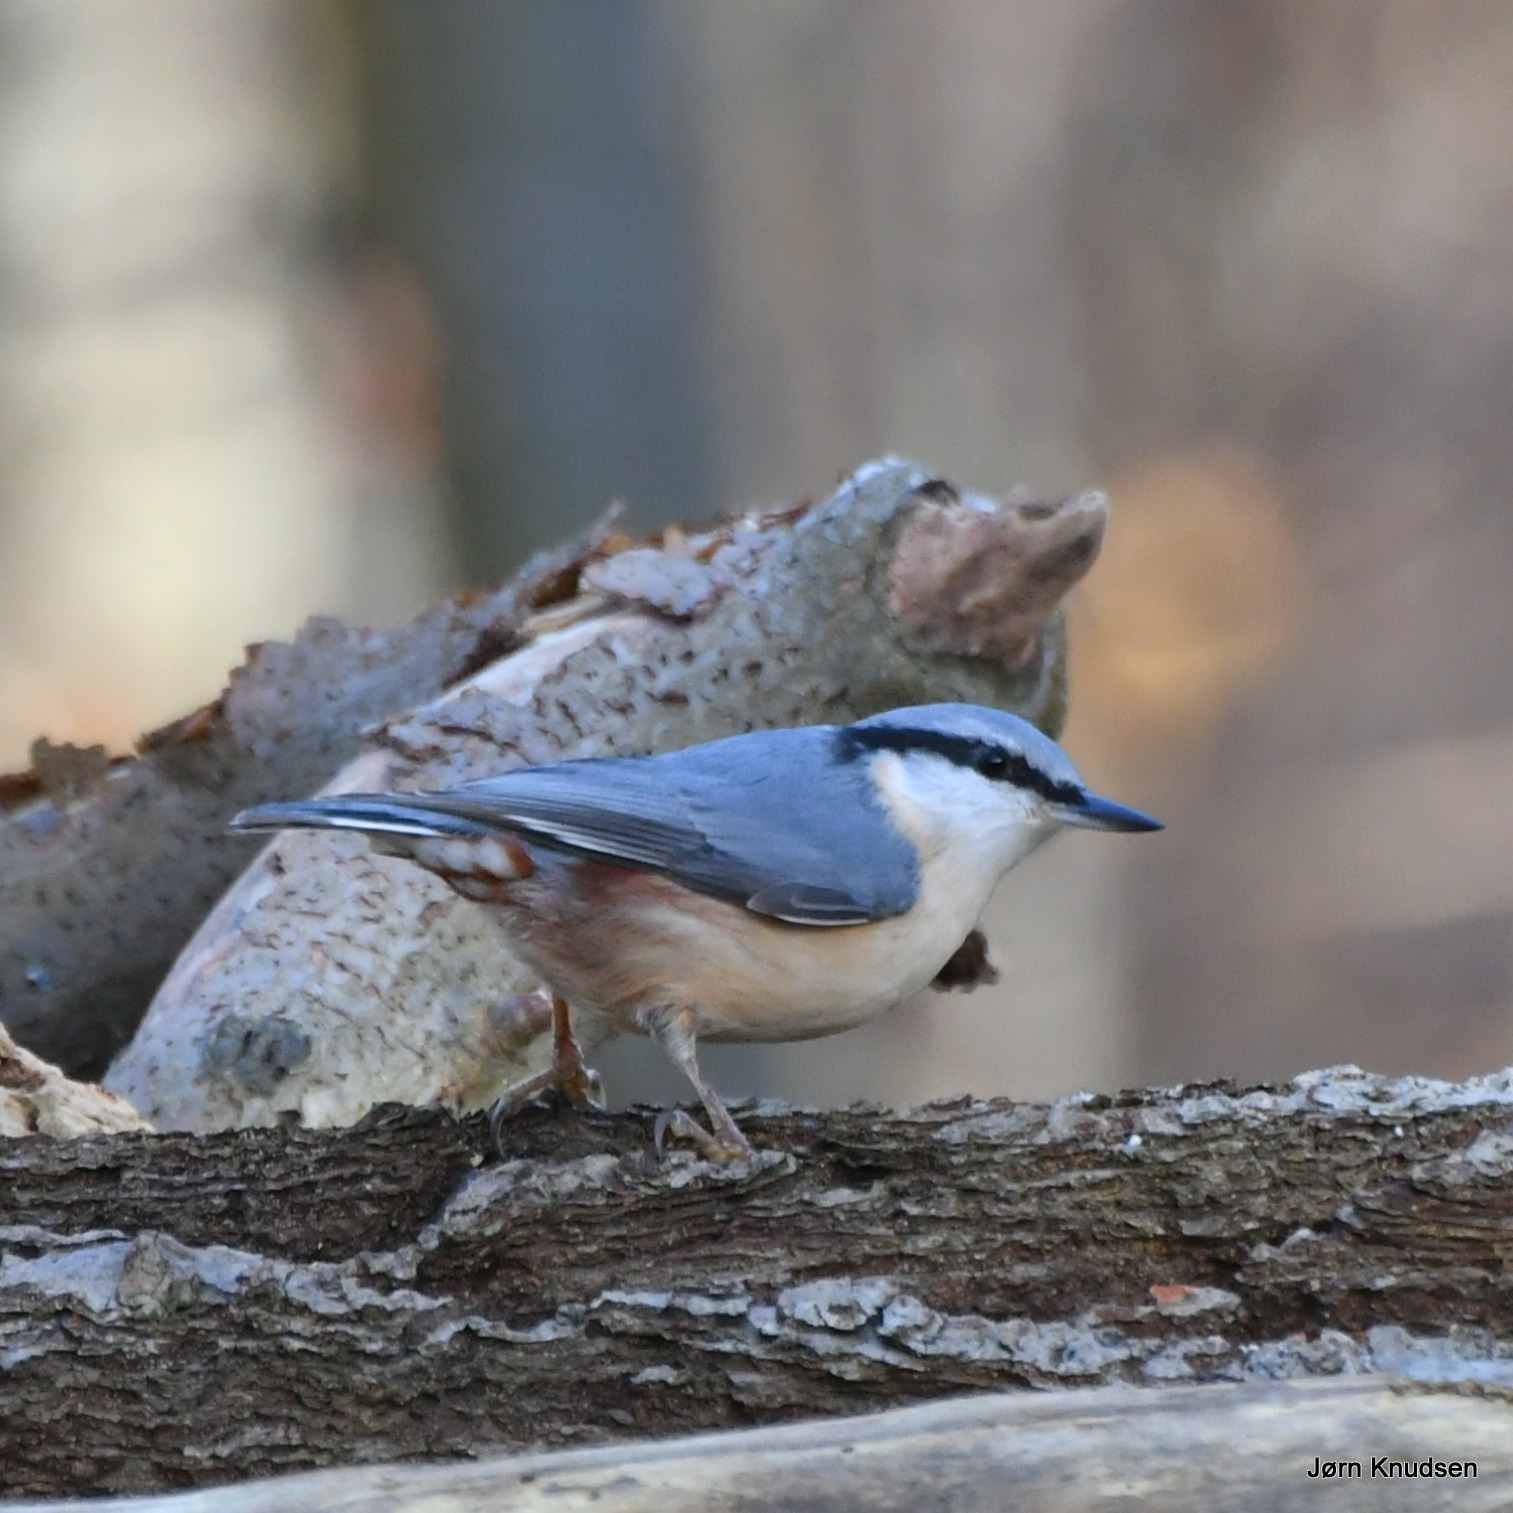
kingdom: Animalia
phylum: Chordata
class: Aves
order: Passeriformes
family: Sittidae
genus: Sitta
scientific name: Sitta europaea
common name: Spætmejse
